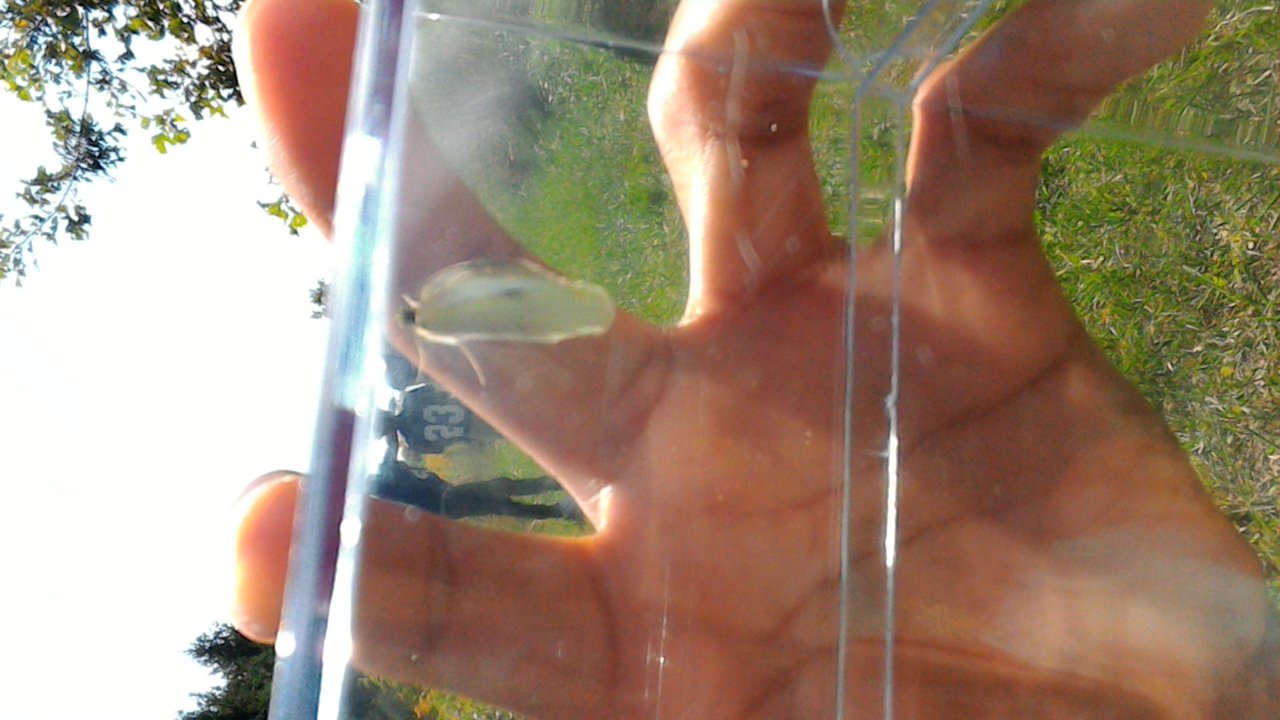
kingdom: Animalia
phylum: Arthropoda
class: Insecta
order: Lepidoptera
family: Pieridae
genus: Pieris
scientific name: Pieris rapae
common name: Cabbage White
